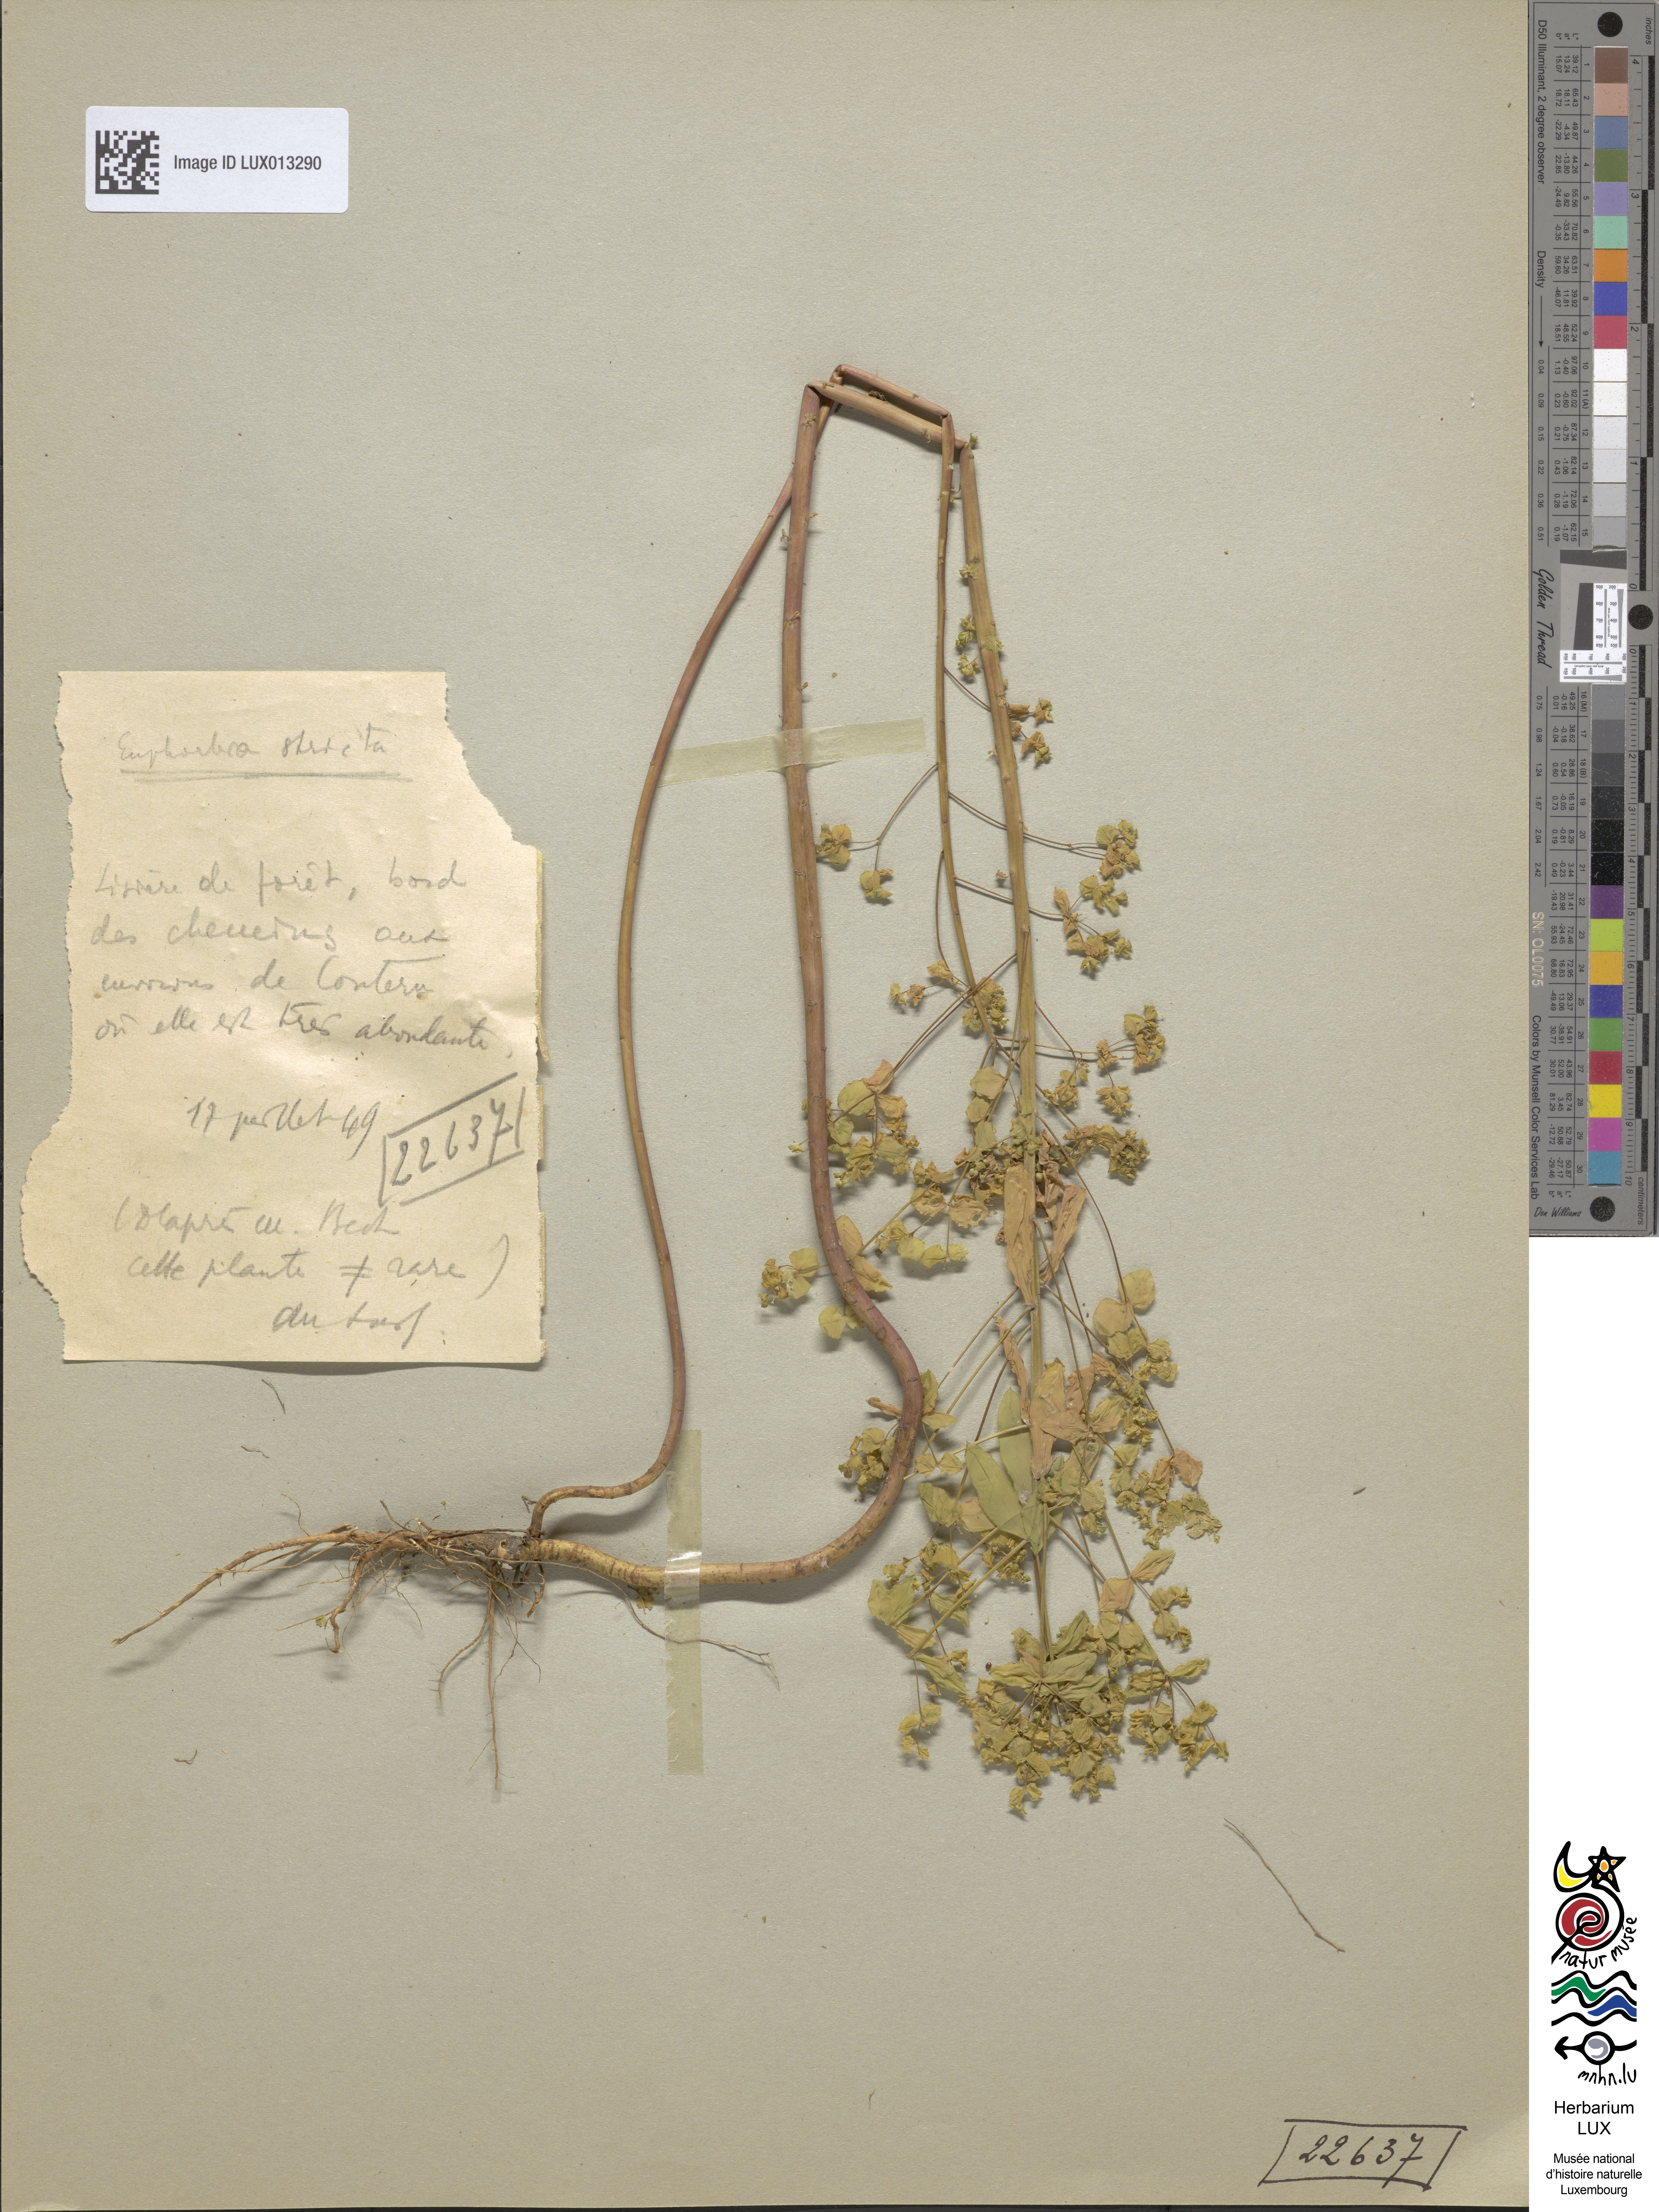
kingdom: Plantae
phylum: Tracheophyta
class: Magnoliopsida
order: Malpighiales
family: Euphorbiaceae
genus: Euphorbia
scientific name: Euphorbia stricta
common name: Upright spurge
